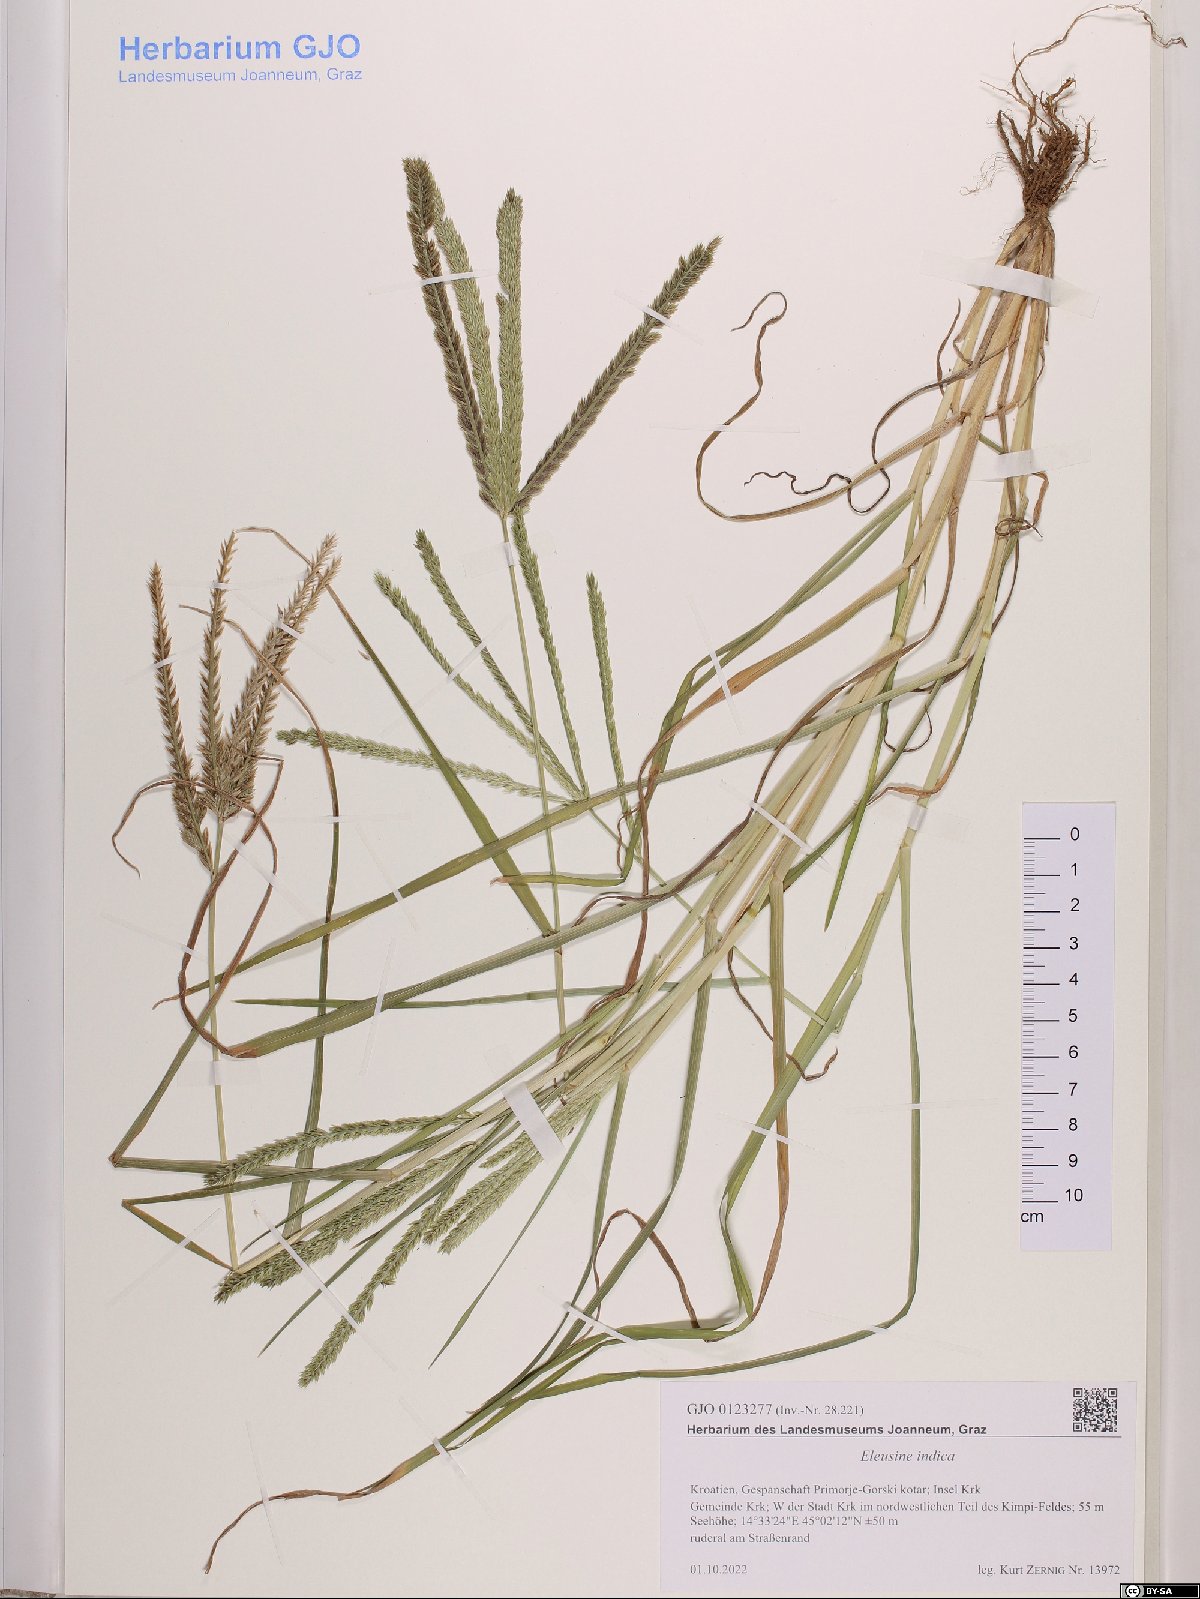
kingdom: Plantae
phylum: Tracheophyta
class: Liliopsida
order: Poales
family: Poaceae
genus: Eleusine
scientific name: Eleusine indica
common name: Yard-grass
